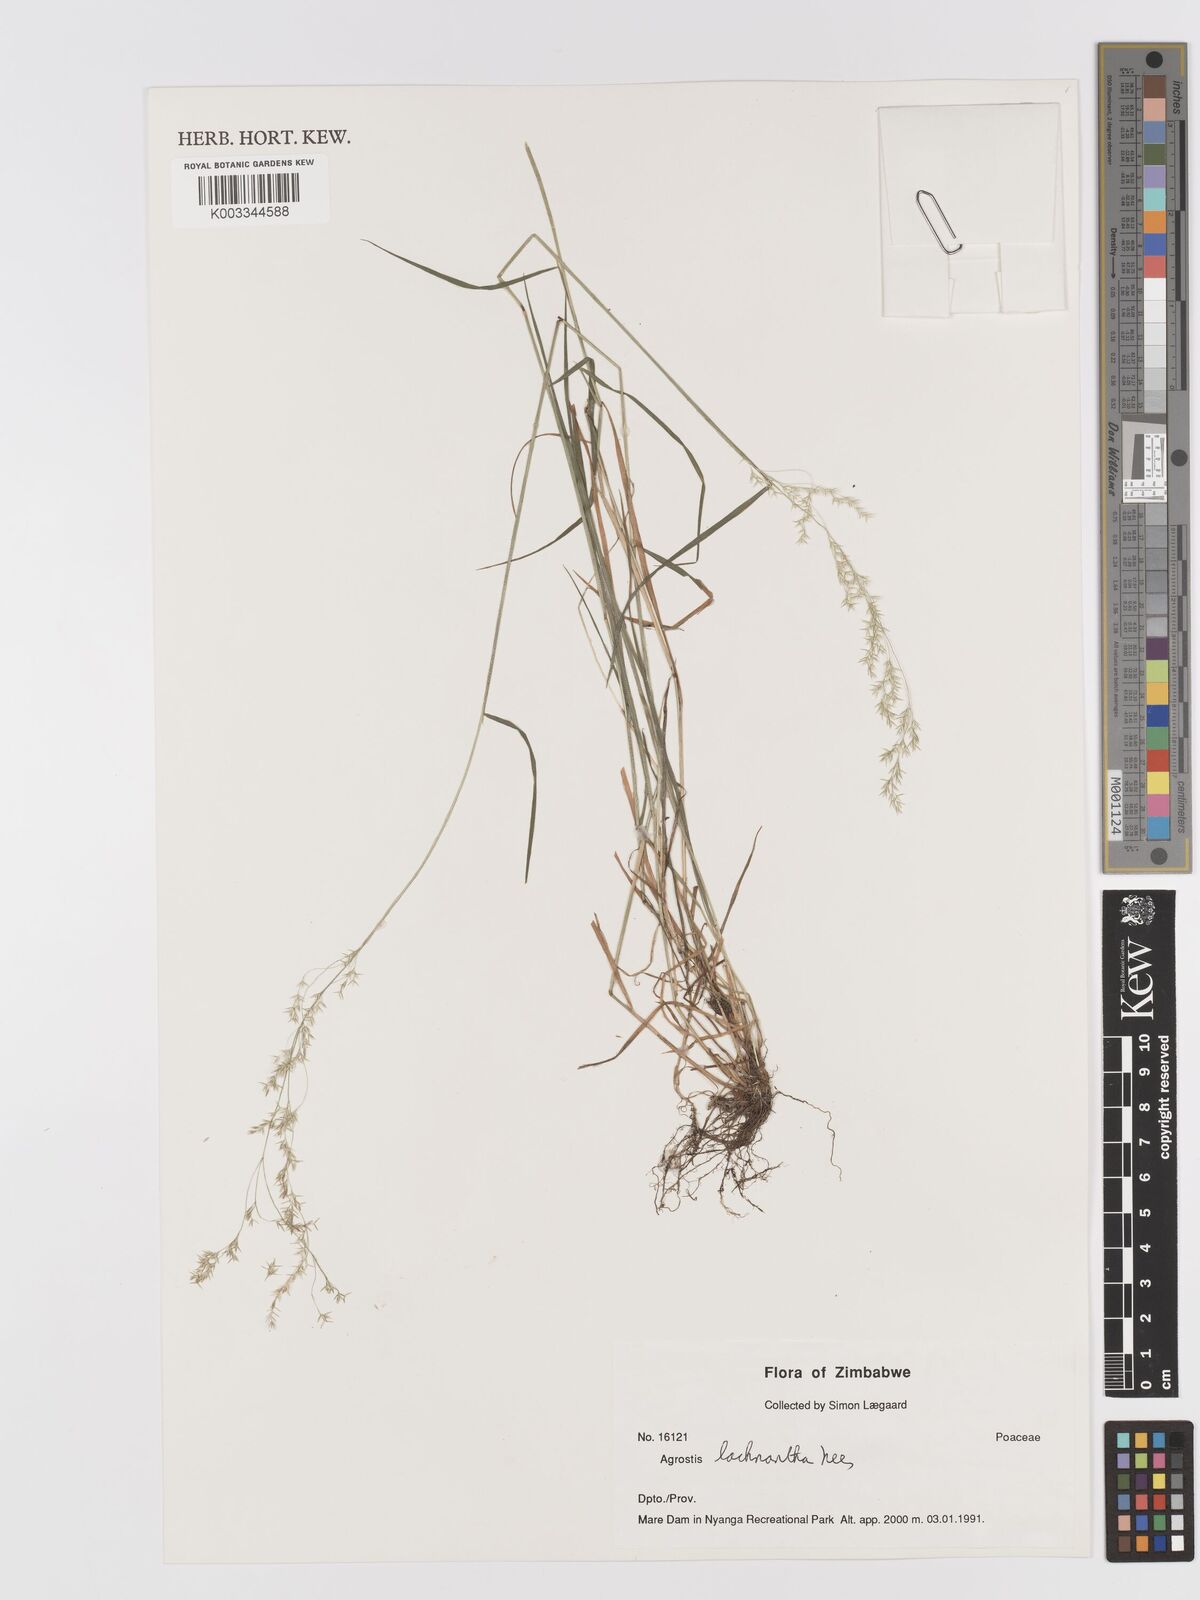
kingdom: Plantae
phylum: Tracheophyta
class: Liliopsida
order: Poales
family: Poaceae
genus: Lachnagrostis
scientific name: Lachnagrostis lachnantha
